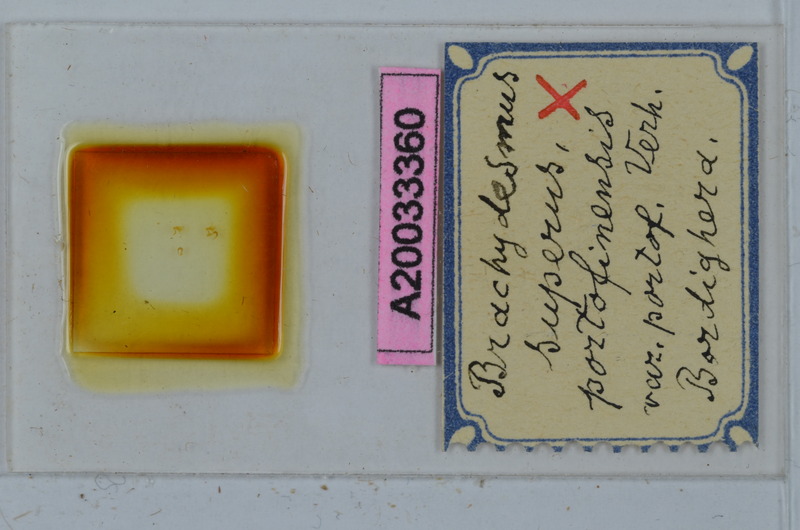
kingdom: Animalia
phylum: Arthropoda
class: Diplopoda
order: Polydesmida
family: Polydesmidae
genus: Brachydesmus
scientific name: Brachydesmus superus
